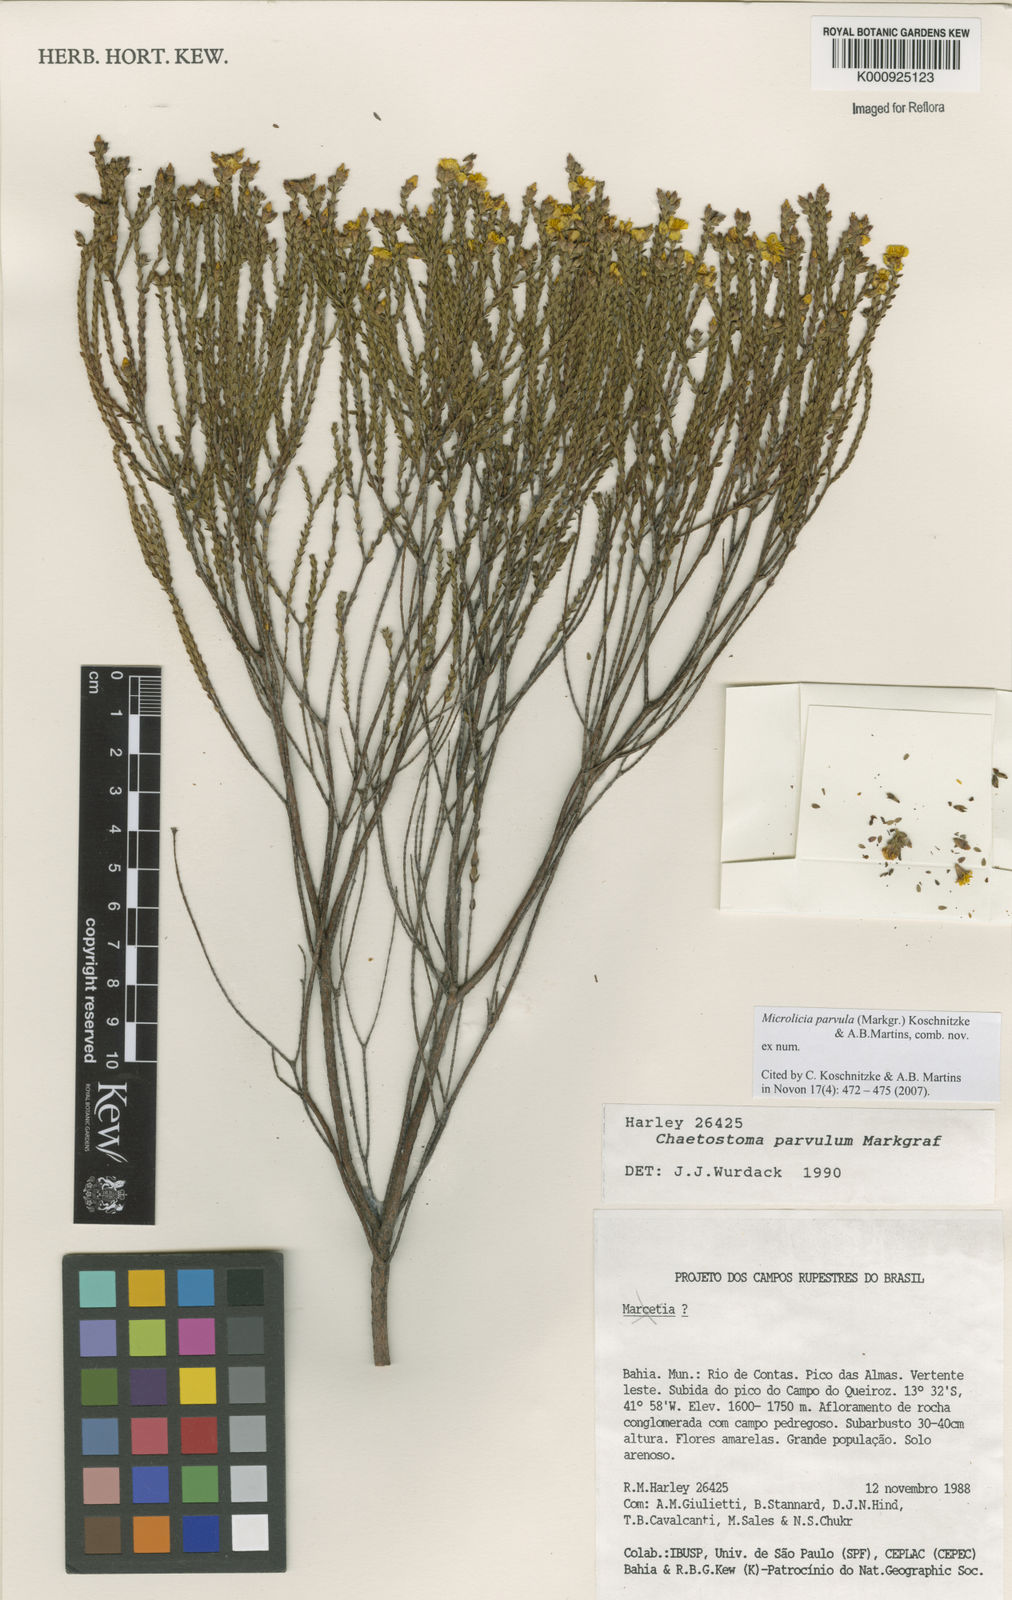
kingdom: Plantae
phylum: Tracheophyta
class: Magnoliopsida
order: Myrtales
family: Melastomataceae
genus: Microlicia
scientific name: Microlicia parvula
